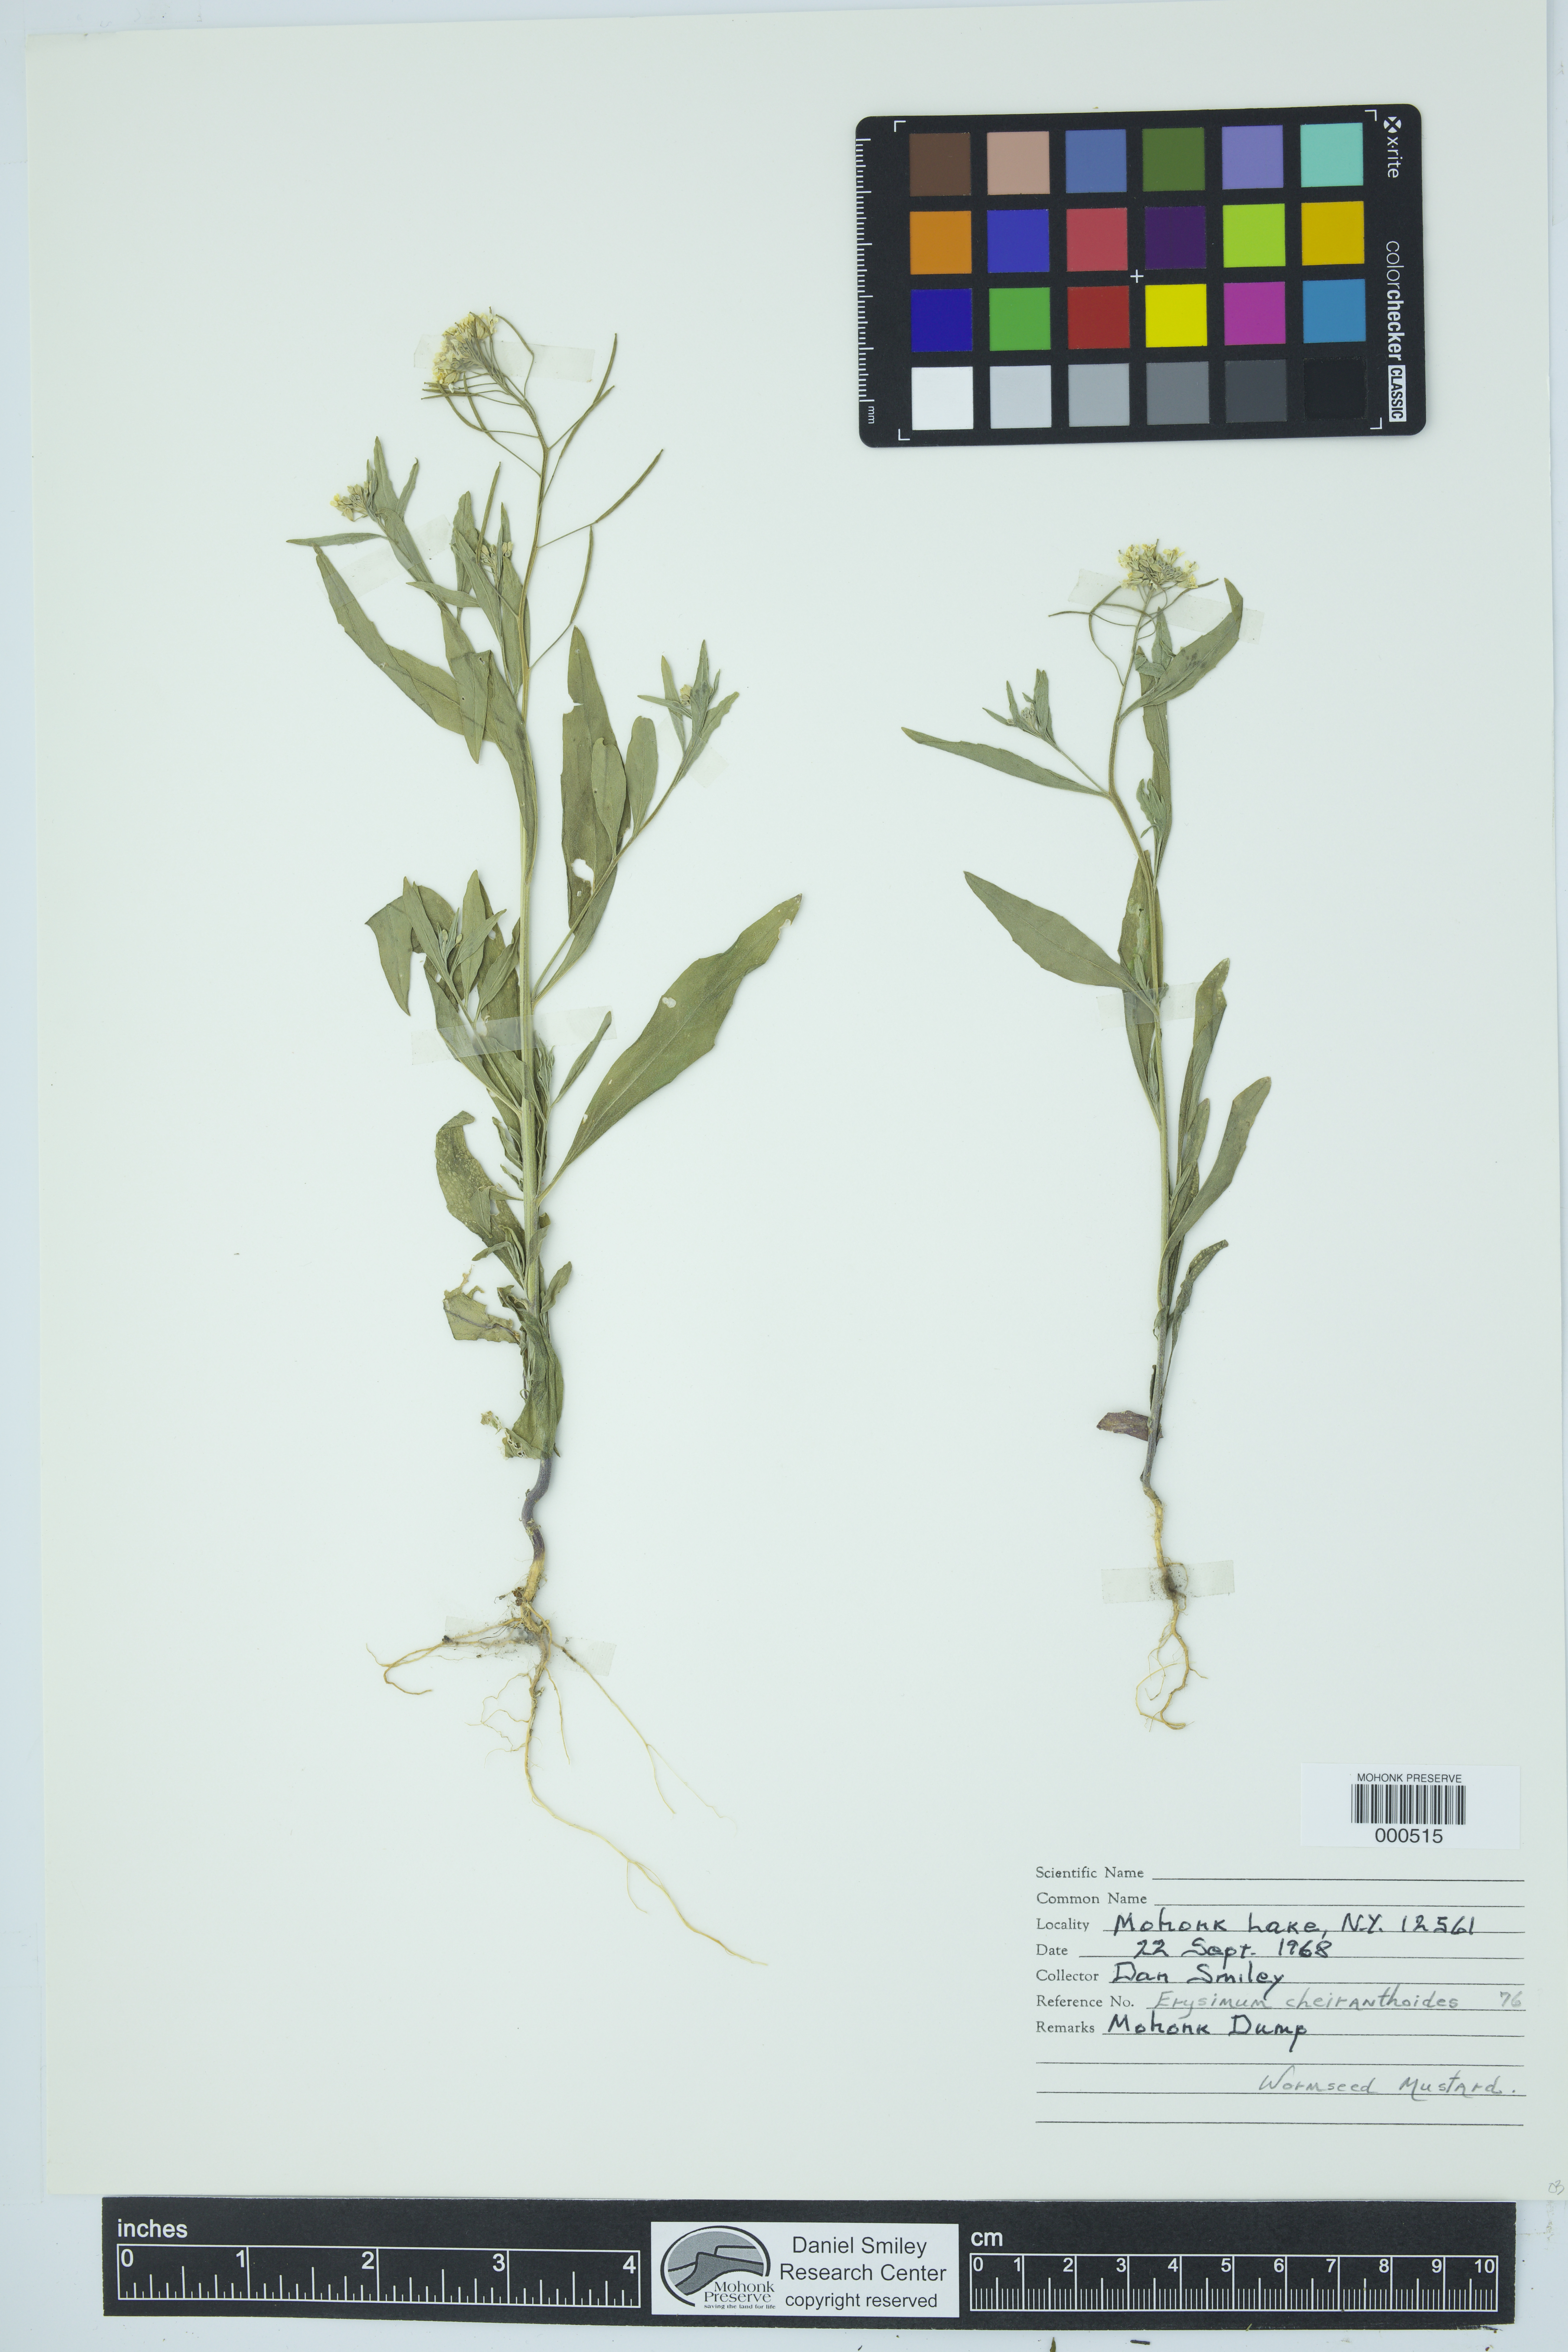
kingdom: Plantae
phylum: Tracheophyta
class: Magnoliopsida
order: Brassicales
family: Brassicaceae
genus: Erysimum
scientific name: Erysimum cheiranthoides
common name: Treacle mustard
